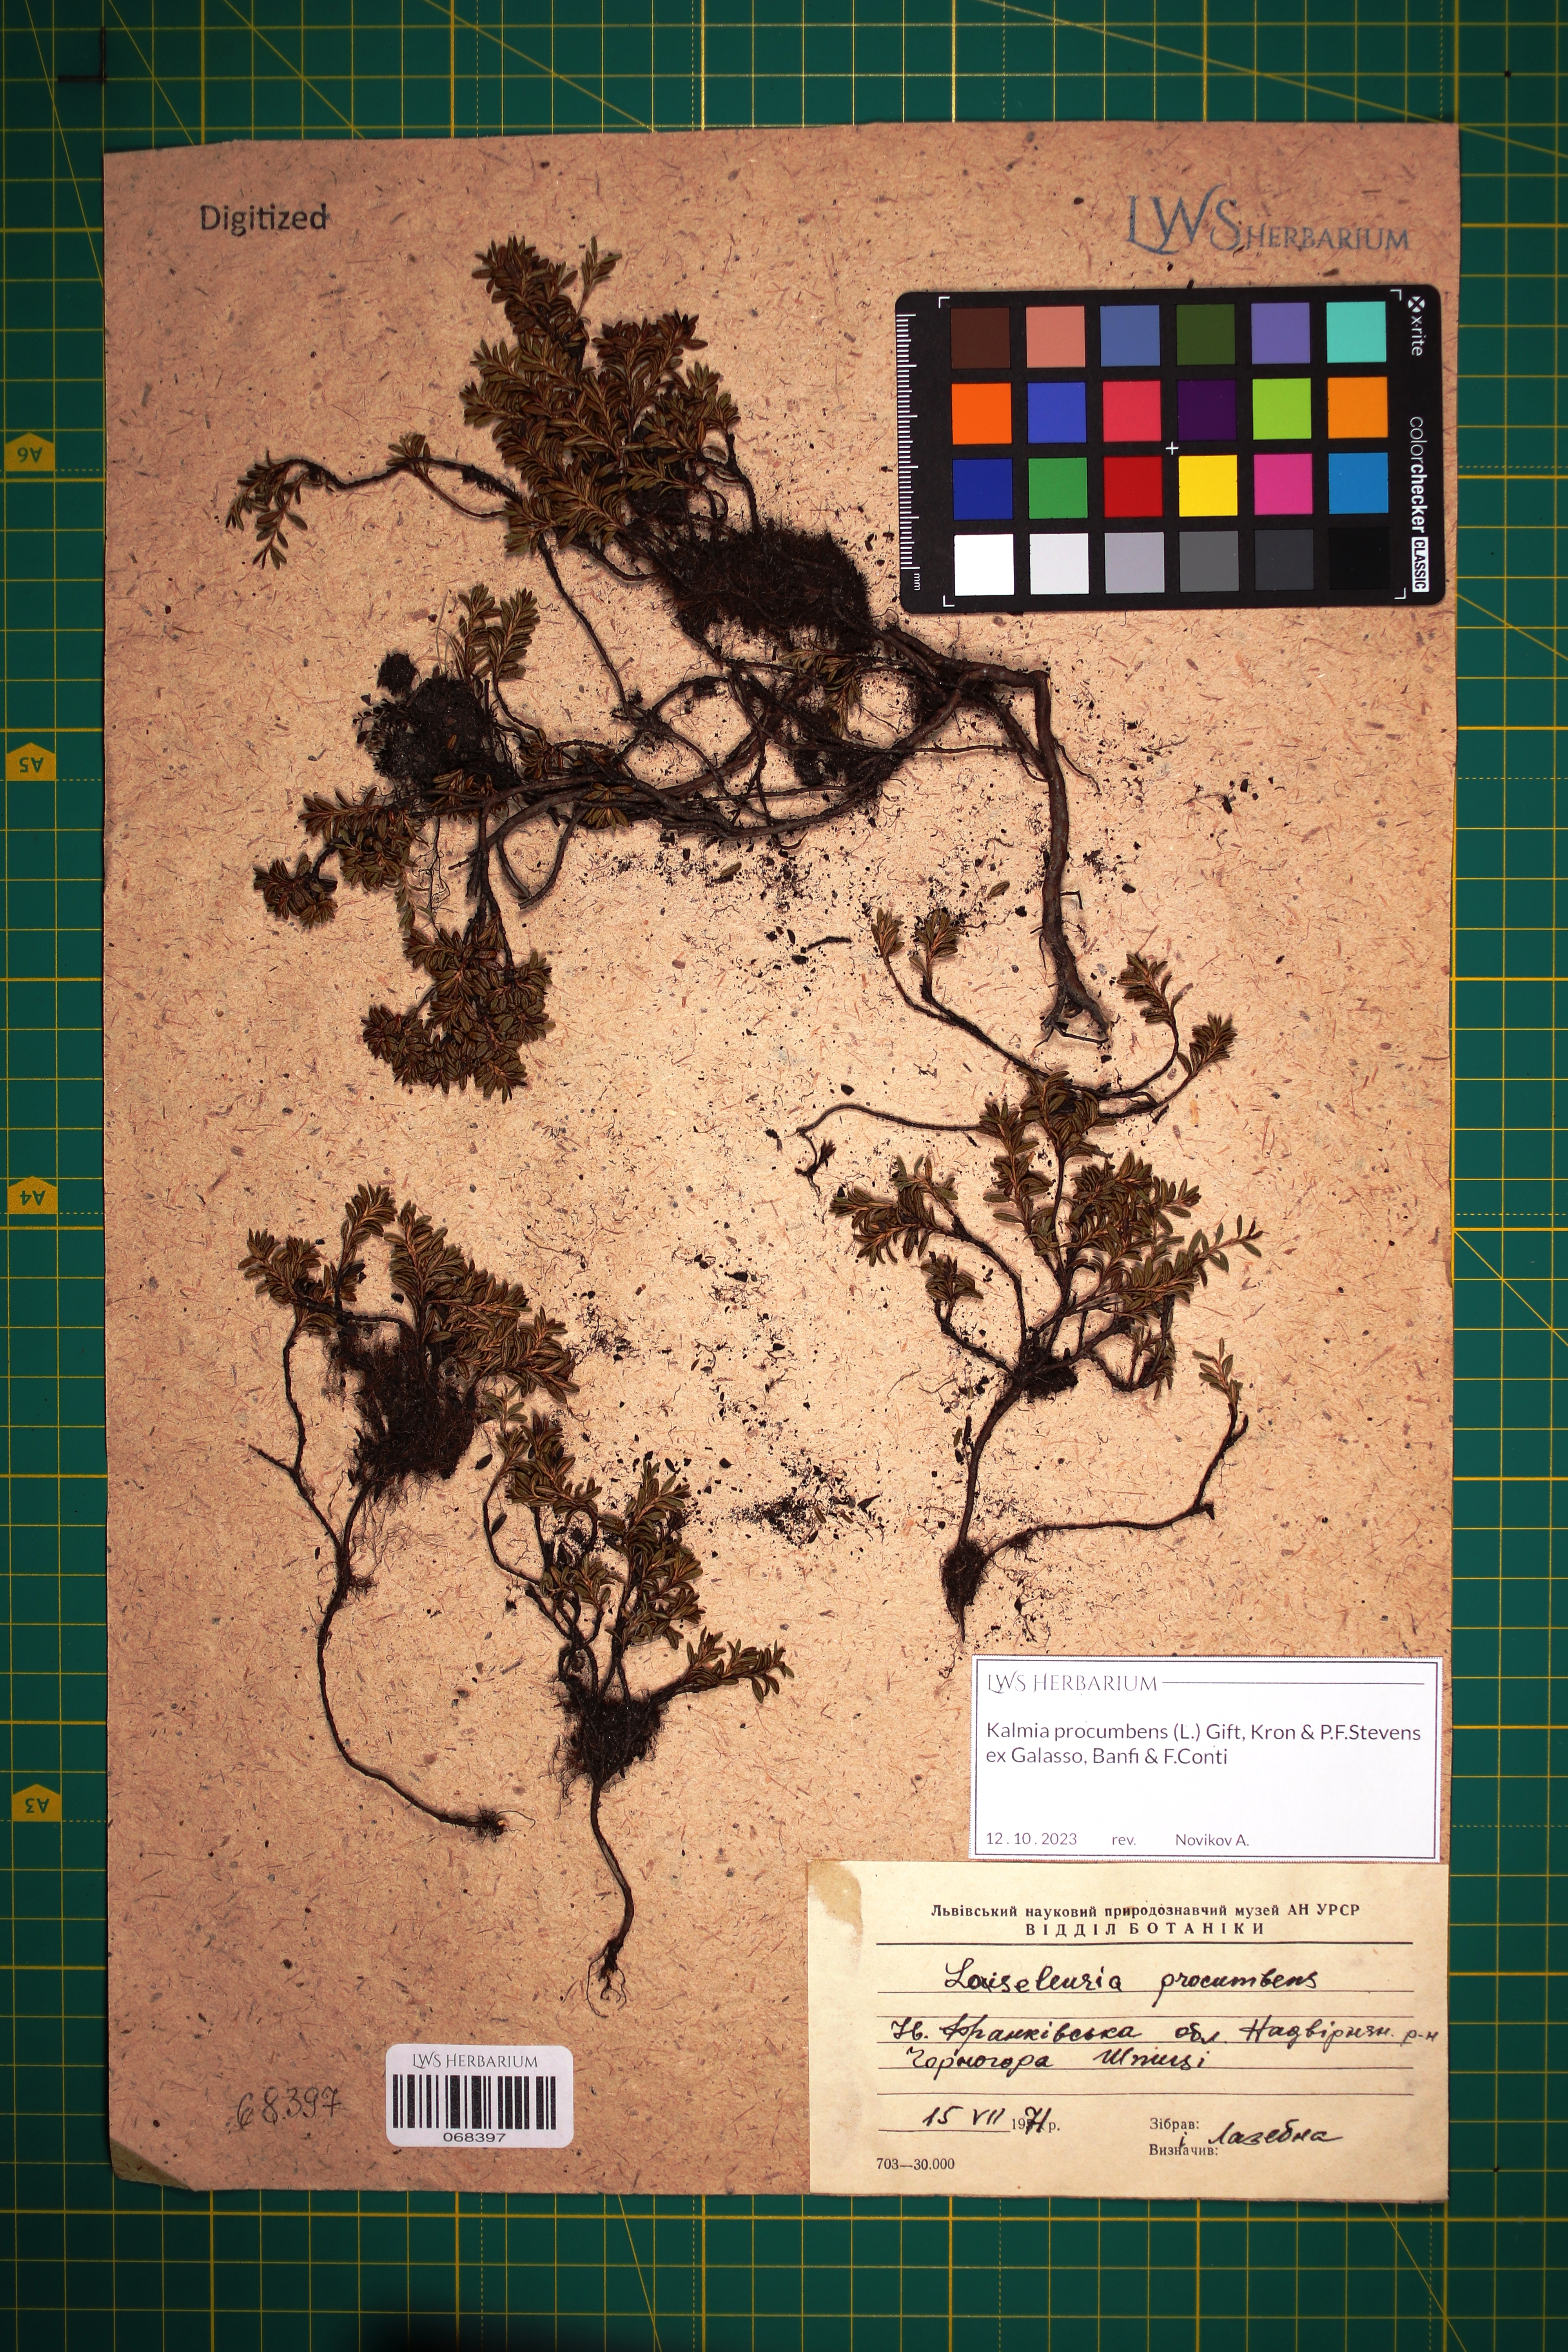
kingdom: Plantae
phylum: Tracheophyta
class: Magnoliopsida
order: Ericales
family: Ericaceae
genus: Kalmia
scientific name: Kalmia procumbens
